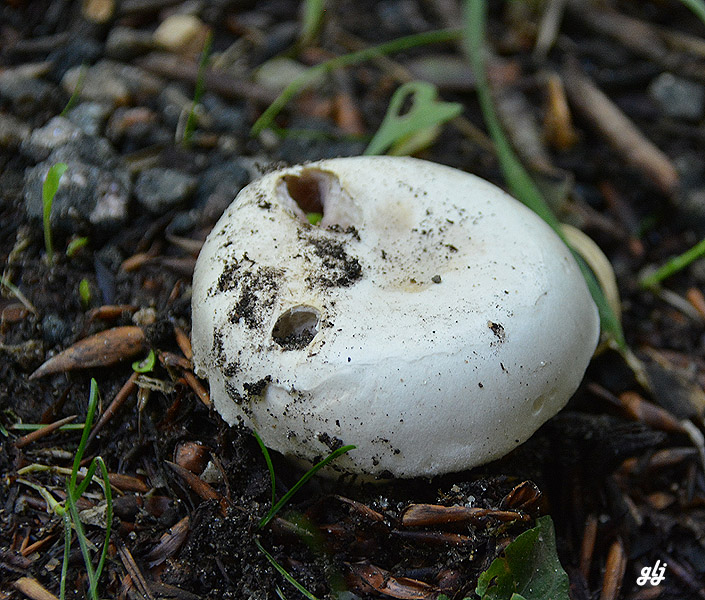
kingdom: Fungi
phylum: Basidiomycota
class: Agaricomycetes
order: Agaricales
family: Agaricaceae
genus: Agaricus
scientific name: Agaricus bitorquis
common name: vej-champignon
